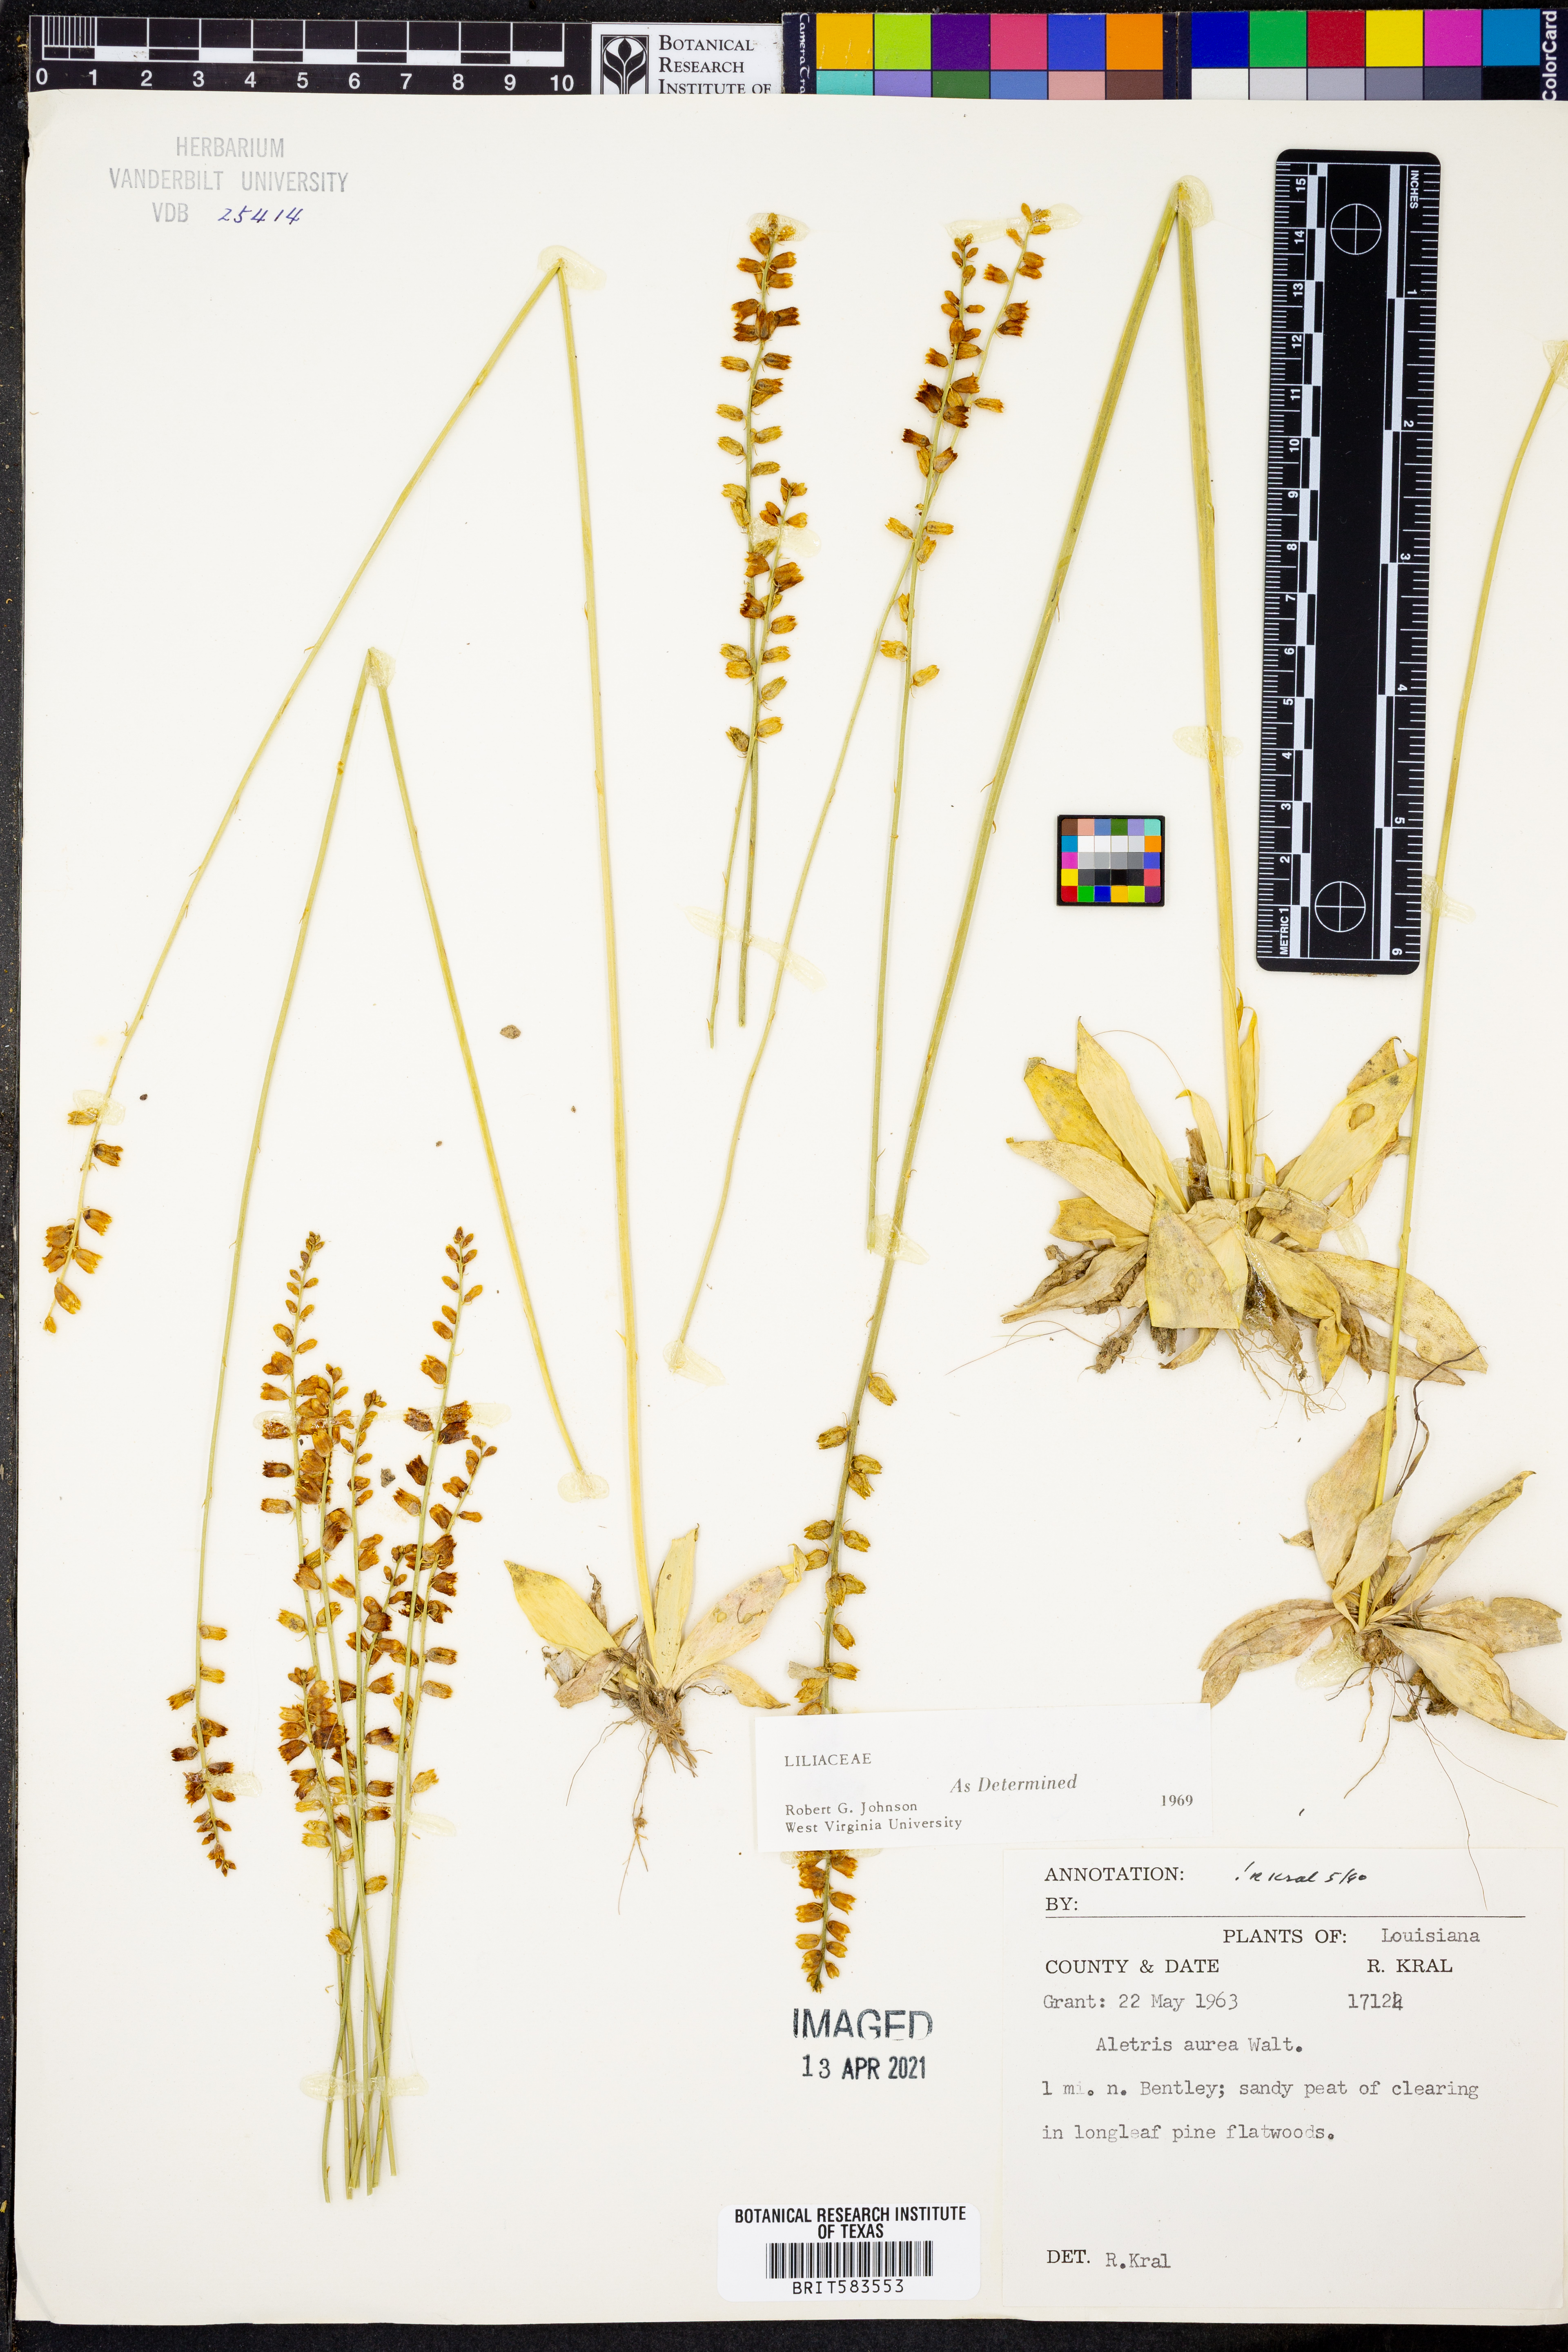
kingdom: Plantae
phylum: Tracheophyta
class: Liliopsida
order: Dioscoreales
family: Nartheciaceae
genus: Aletris
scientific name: Aletris aurea
